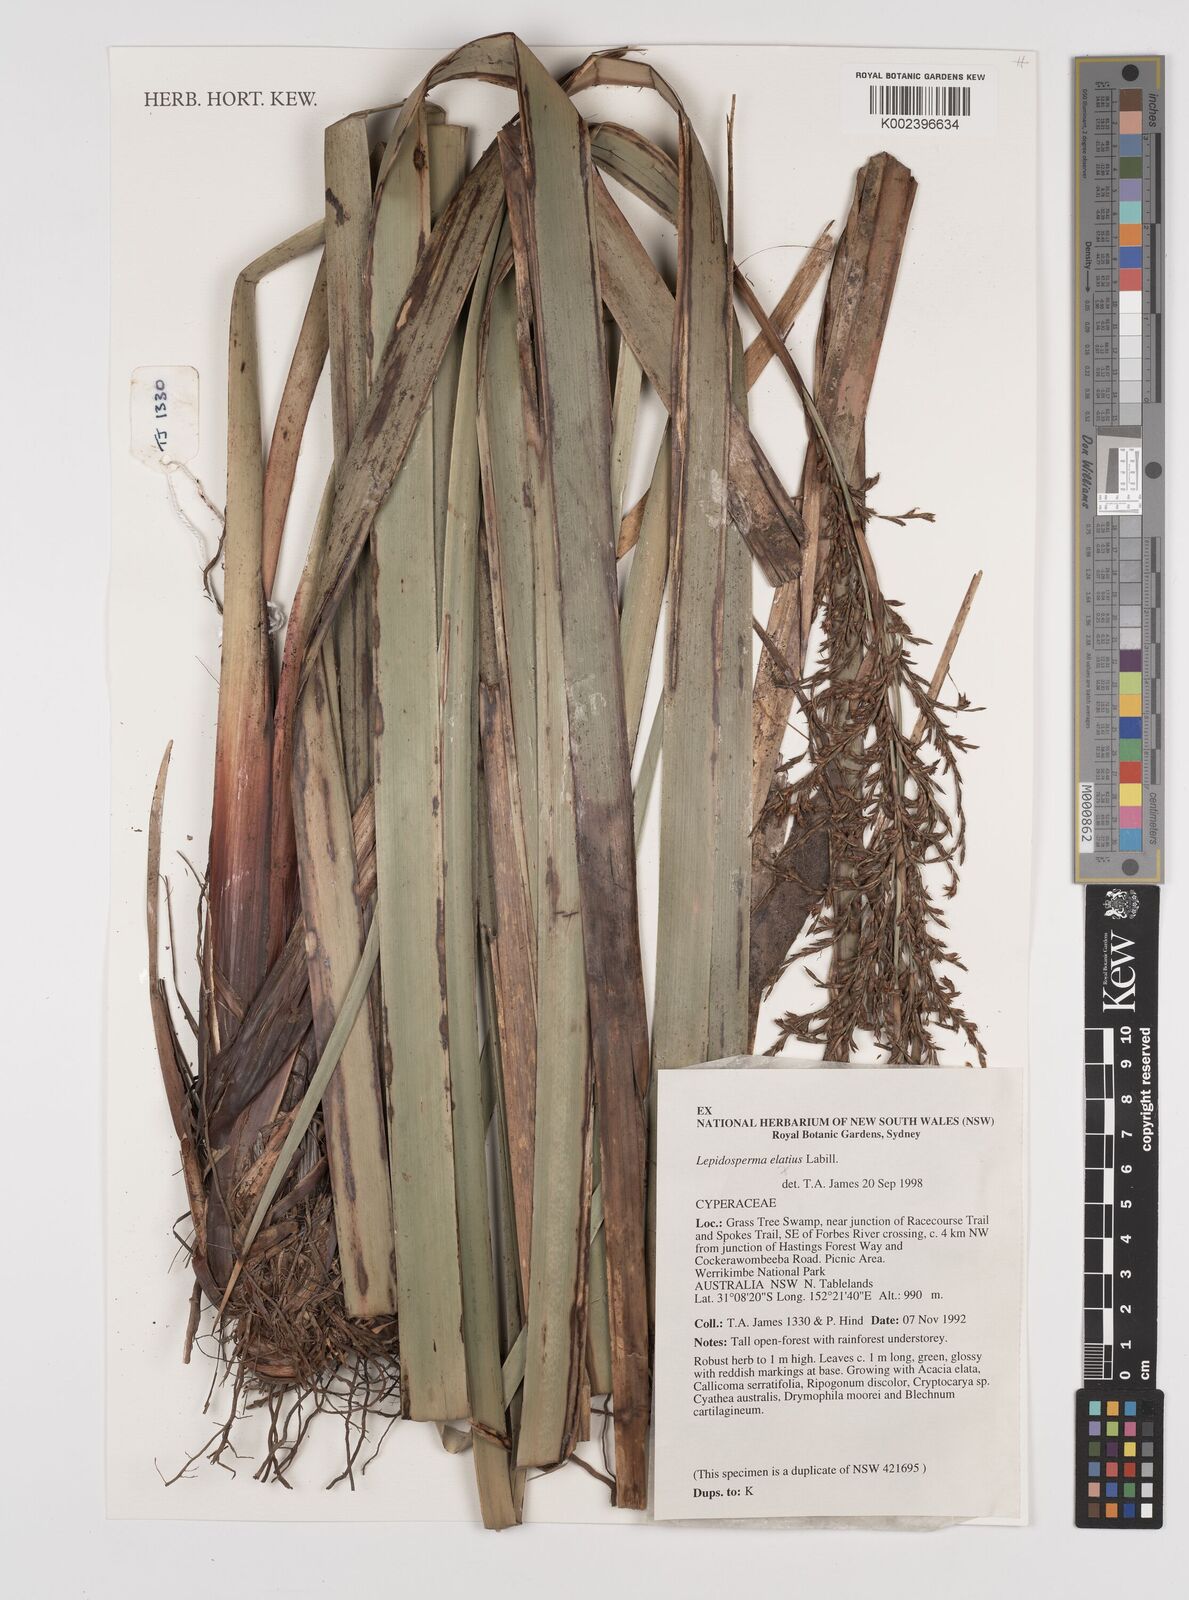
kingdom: Plantae
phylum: Tracheophyta
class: Liliopsida
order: Poales
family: Cyperaceae
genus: Lepidosperma
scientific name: Lepidosperma elatius
